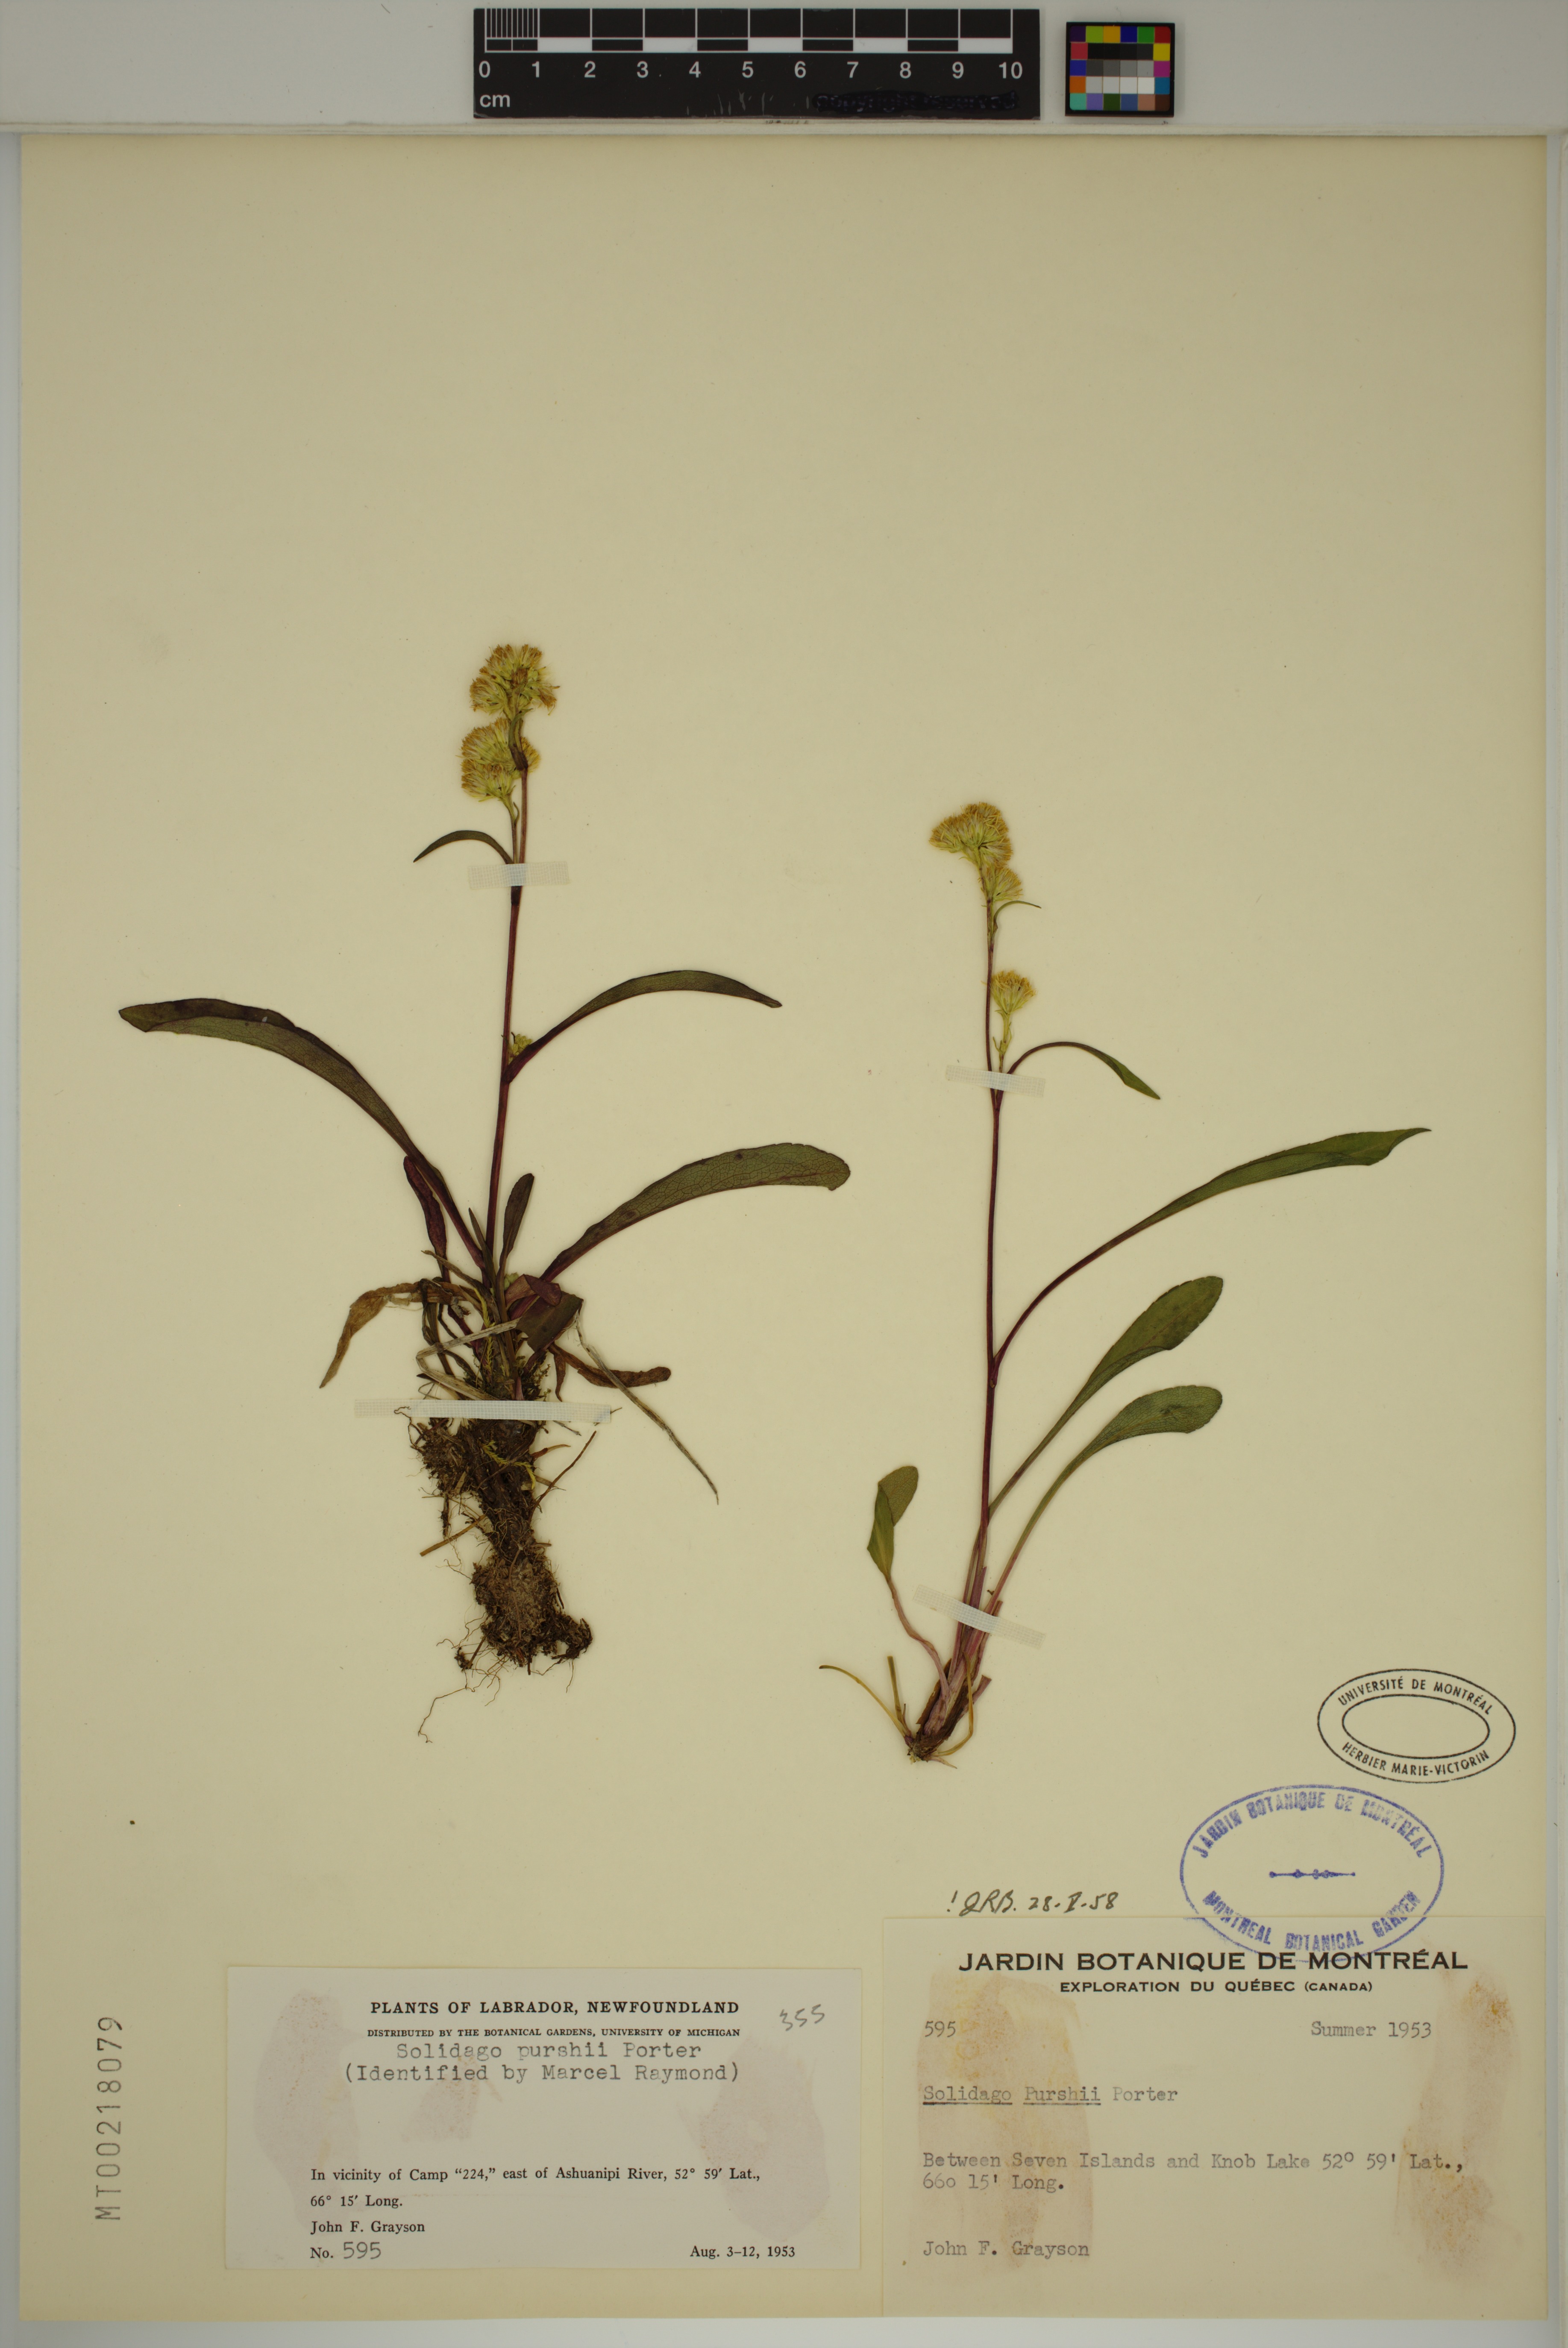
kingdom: Plantae
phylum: Tracheophyta
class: Magnoliopsida
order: Asterales
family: Asteraceae
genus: Solidago
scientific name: Solidago uliginosa
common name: Bog goldenrod
